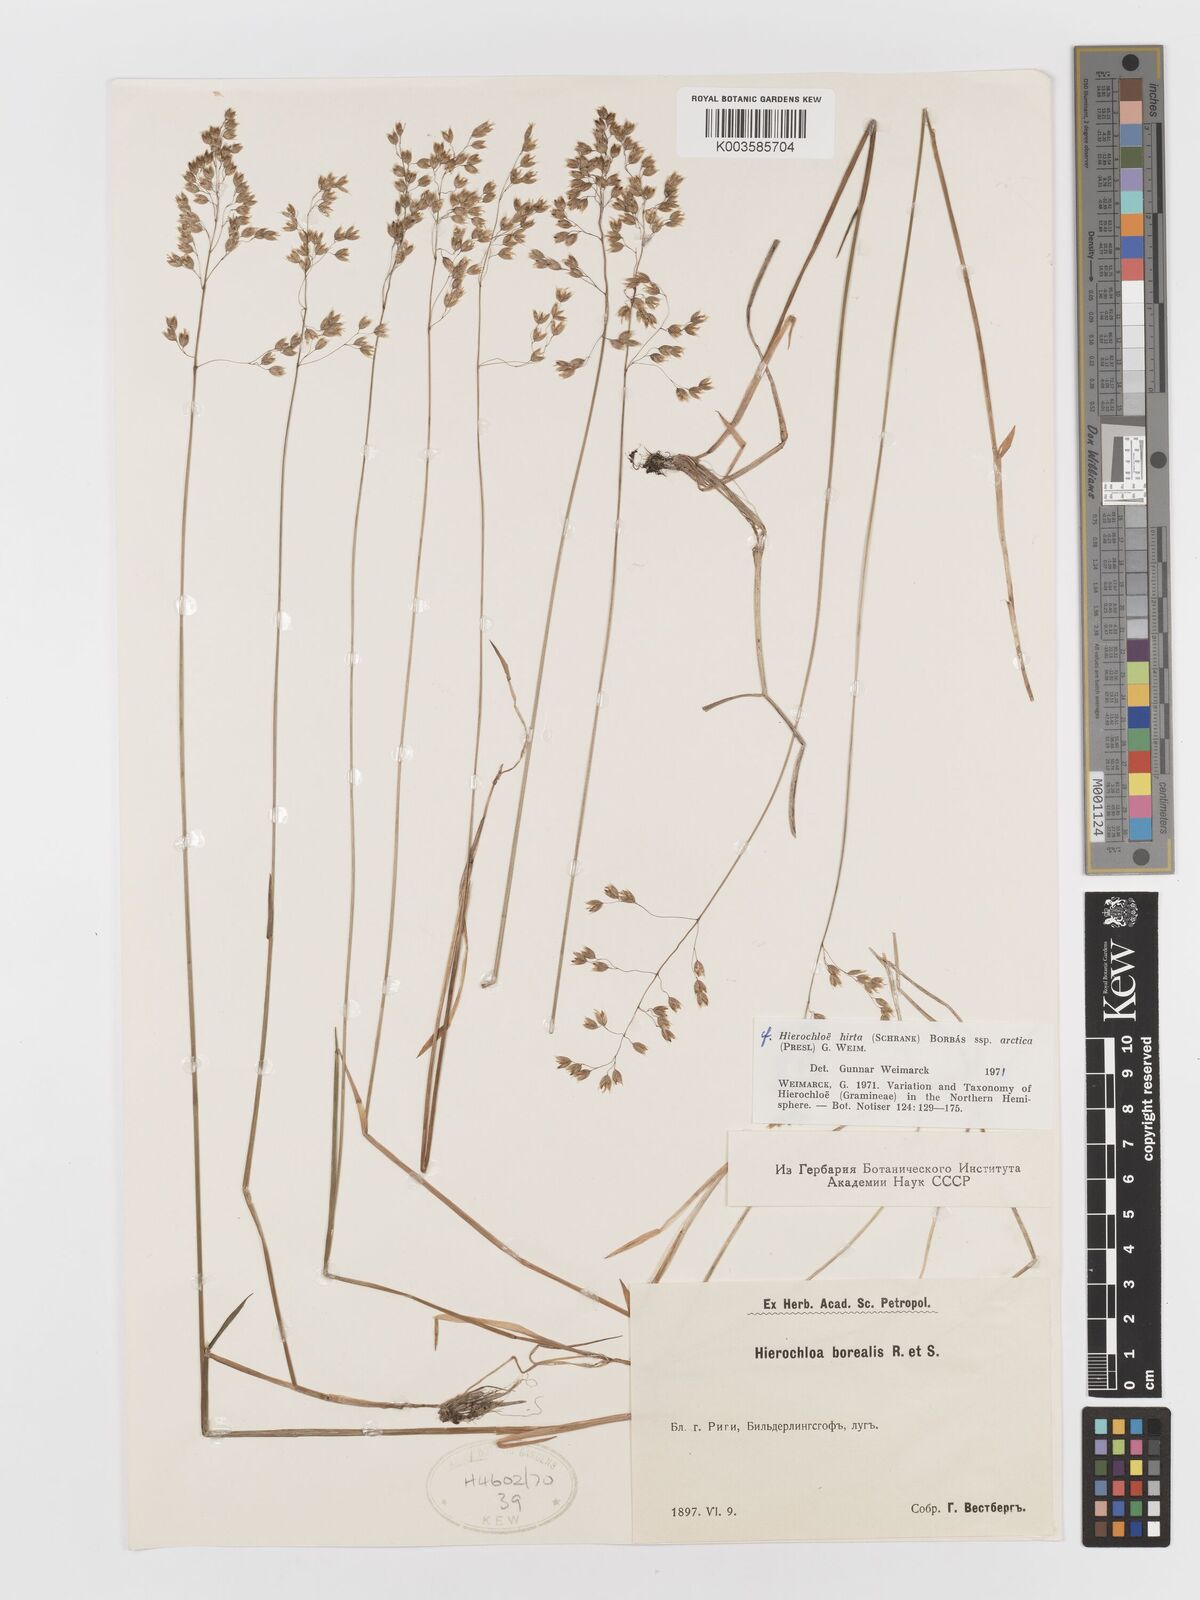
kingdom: Plantae
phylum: Tracheophyta
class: Liliopsida
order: Poales
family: Poaceae
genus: Hierochloe
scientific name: Hierochloe
